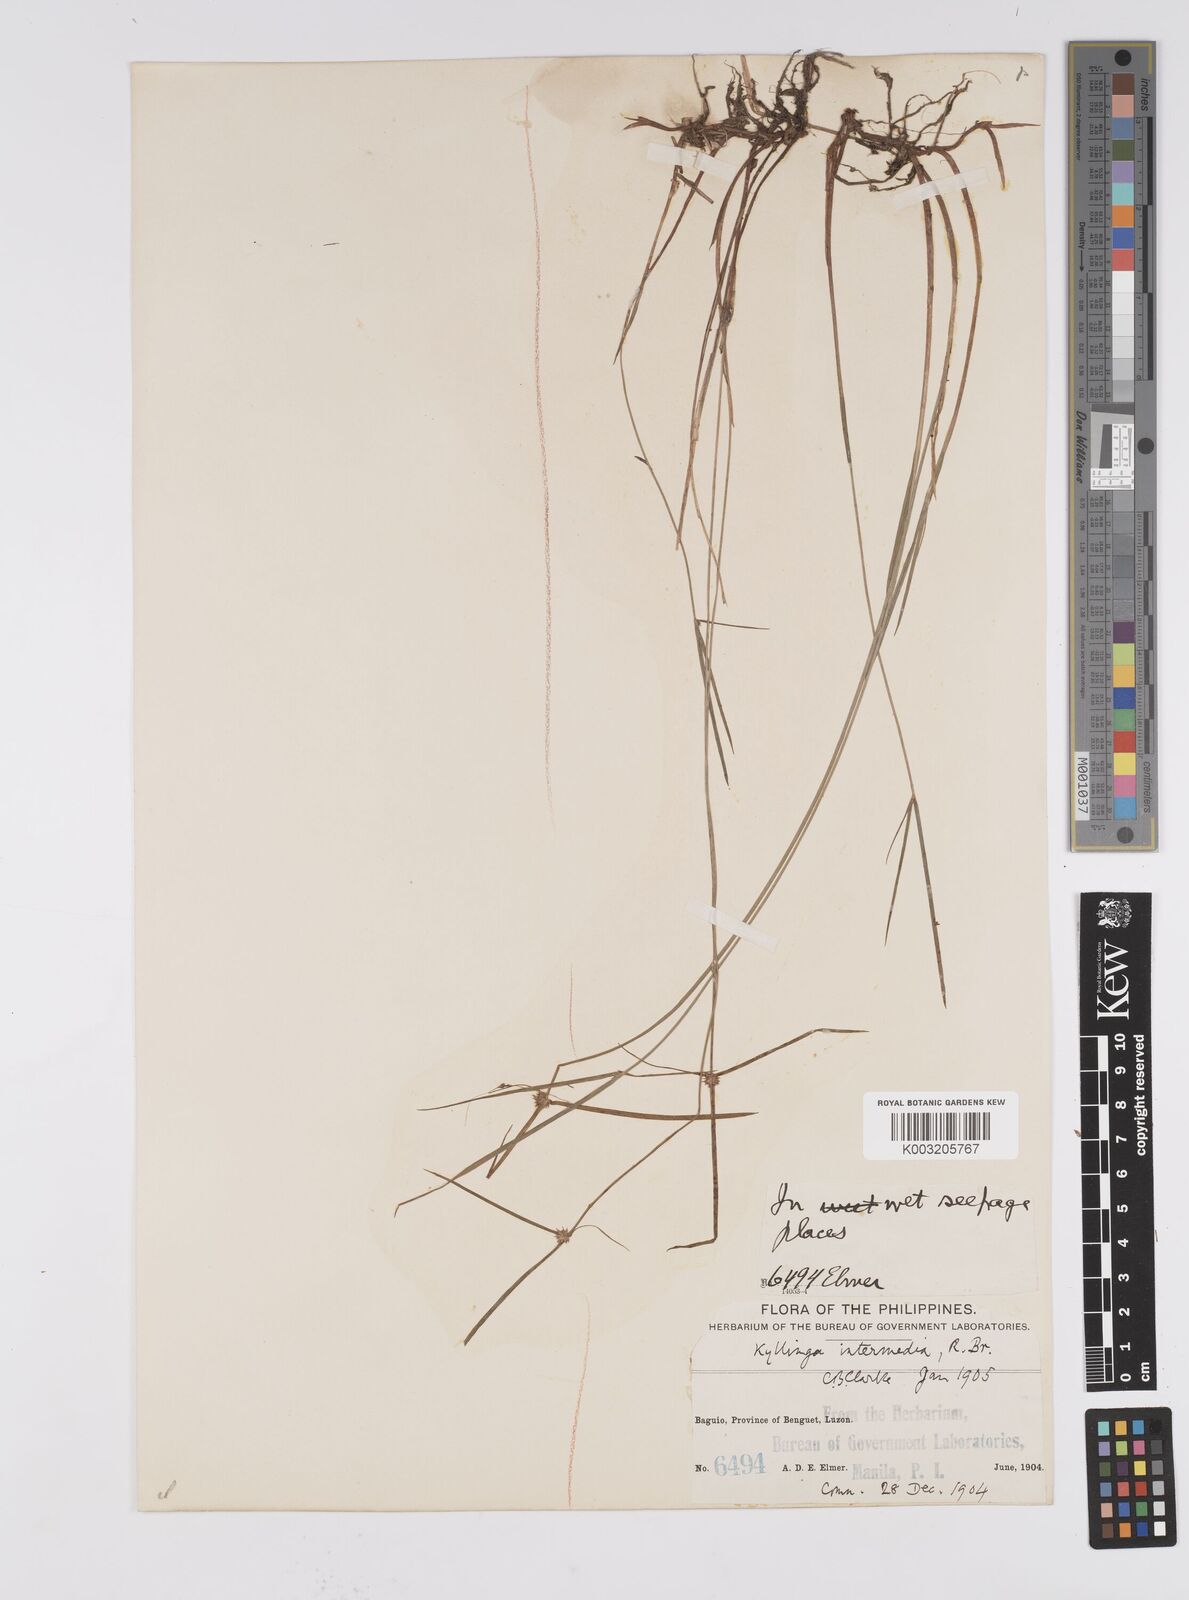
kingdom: Plantae
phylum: Tracheophyta
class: Liliopsida
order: Poales
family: Cyperaceae
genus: Cyperus
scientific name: Cyperus brevifolius
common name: Globe kyllinga
